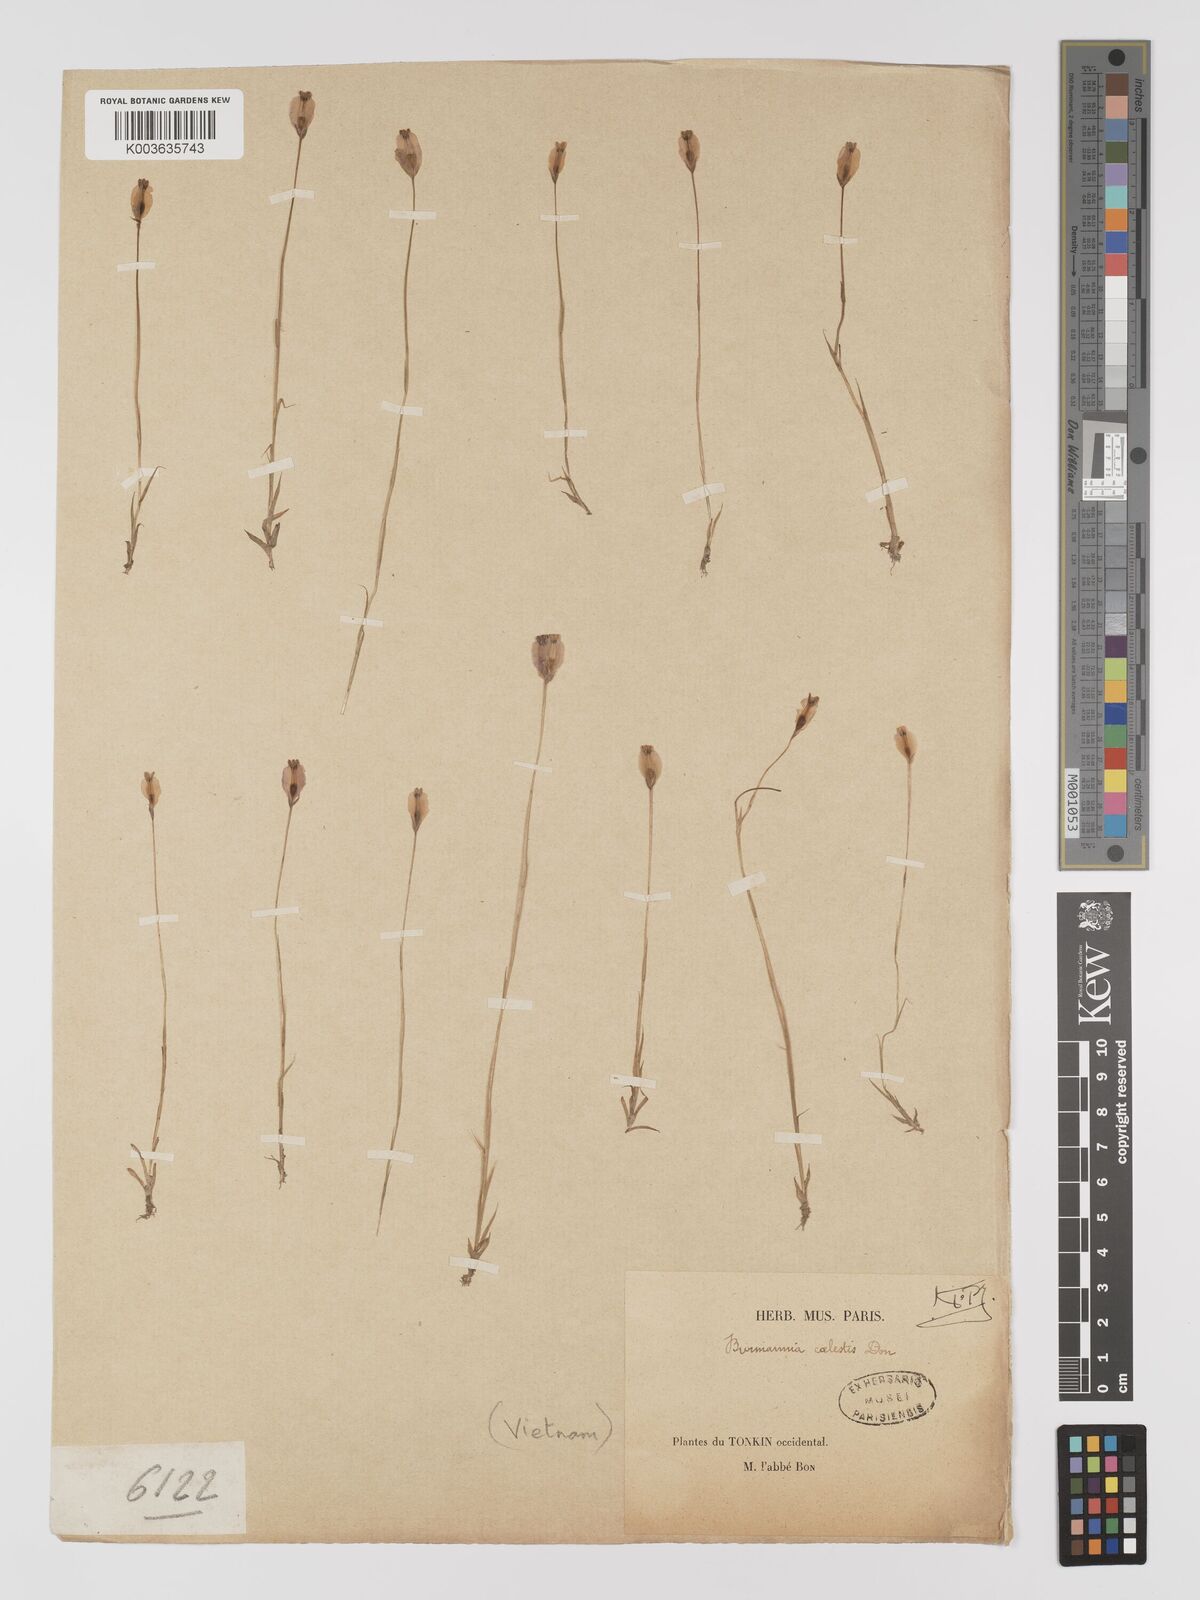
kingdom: Plantae
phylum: Tracheophyta
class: Liliopsida
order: Dioscoreales
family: Burmanniaceae
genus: Burmannia
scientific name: Burmannia coelestis
